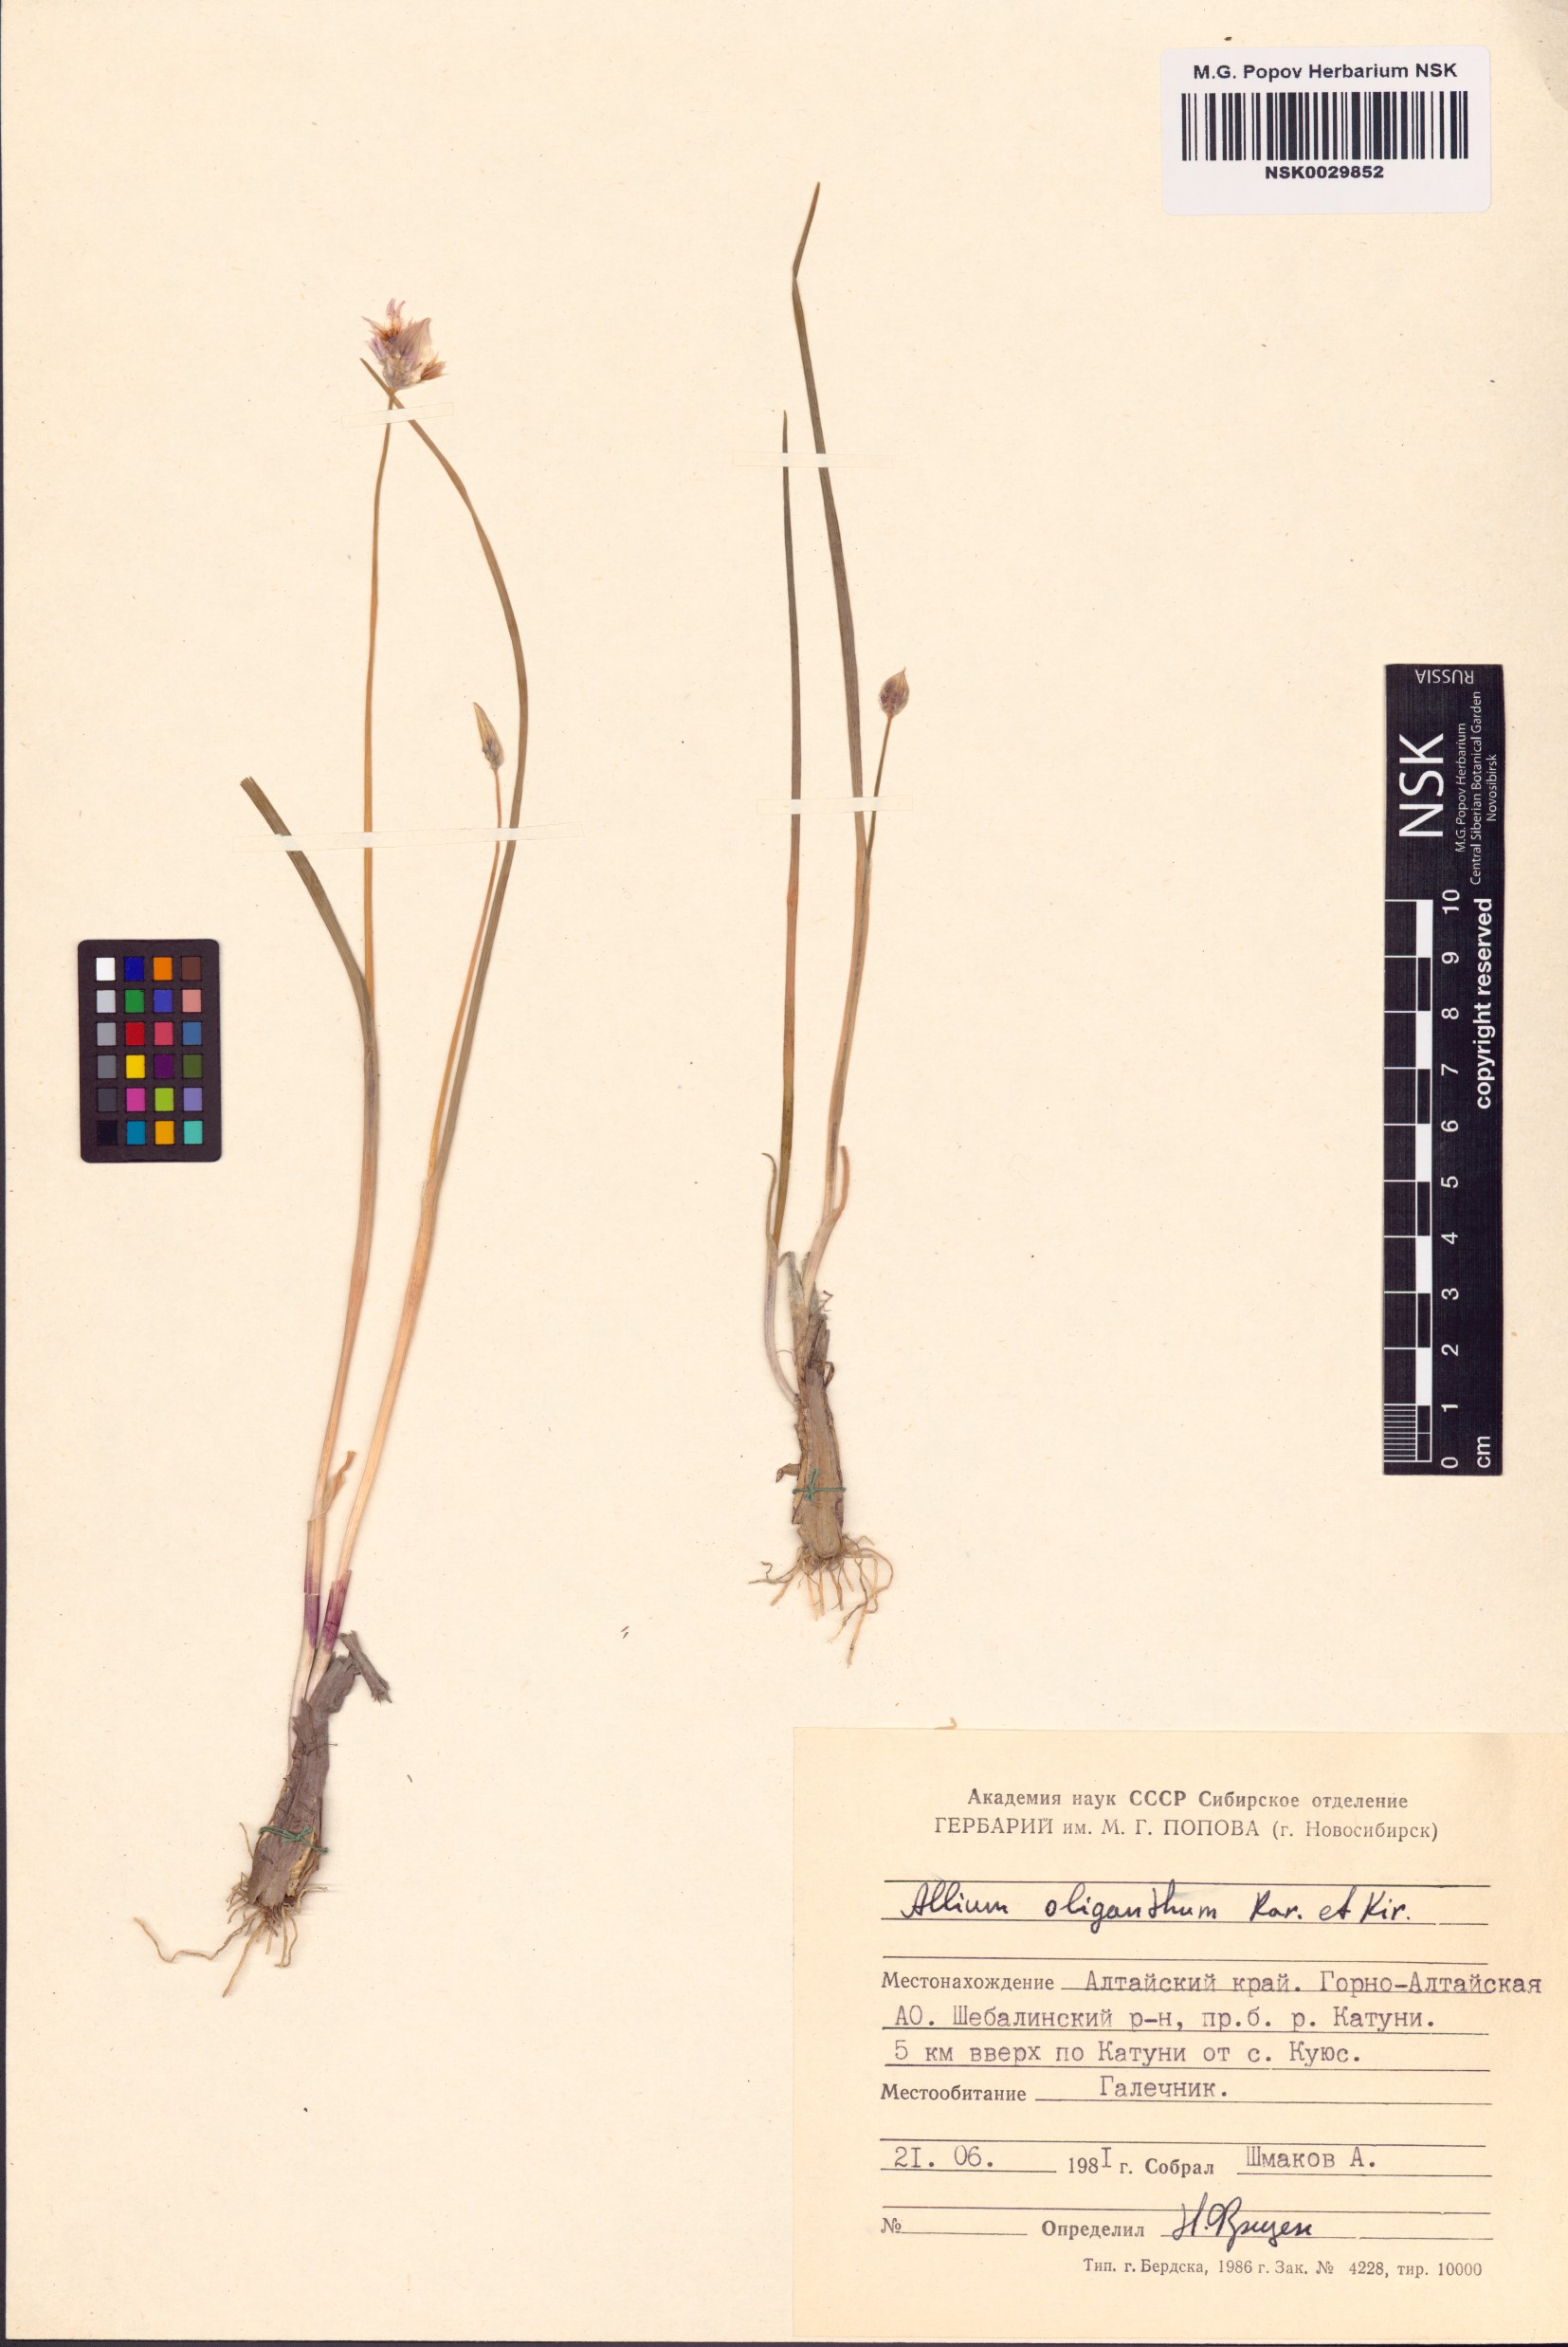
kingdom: Plantae
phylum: Tracheophyta
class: Liliopsida
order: Asparagales
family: Amaryllidaceae
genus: Allium
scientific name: Allium oliganthum
